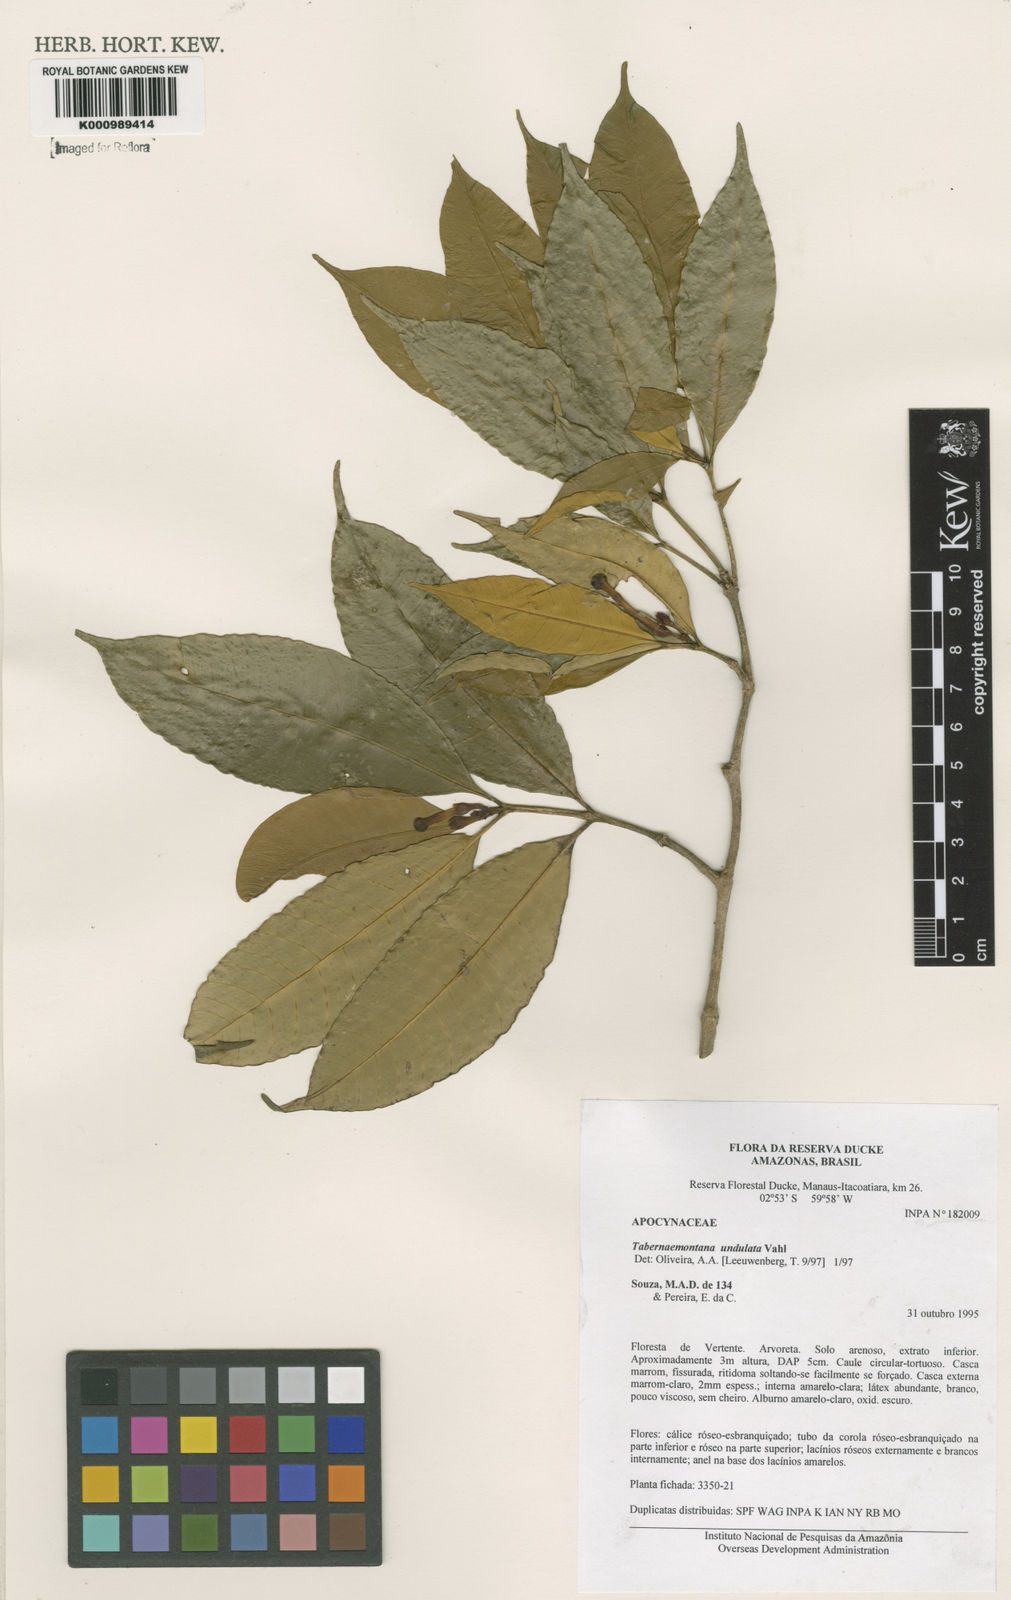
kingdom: Plantae
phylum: Tracheophyta
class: Magnoliopsida
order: Gentianales
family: Apocynaceae
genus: Tabernaemontana
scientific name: Tabernaemontana undulata
